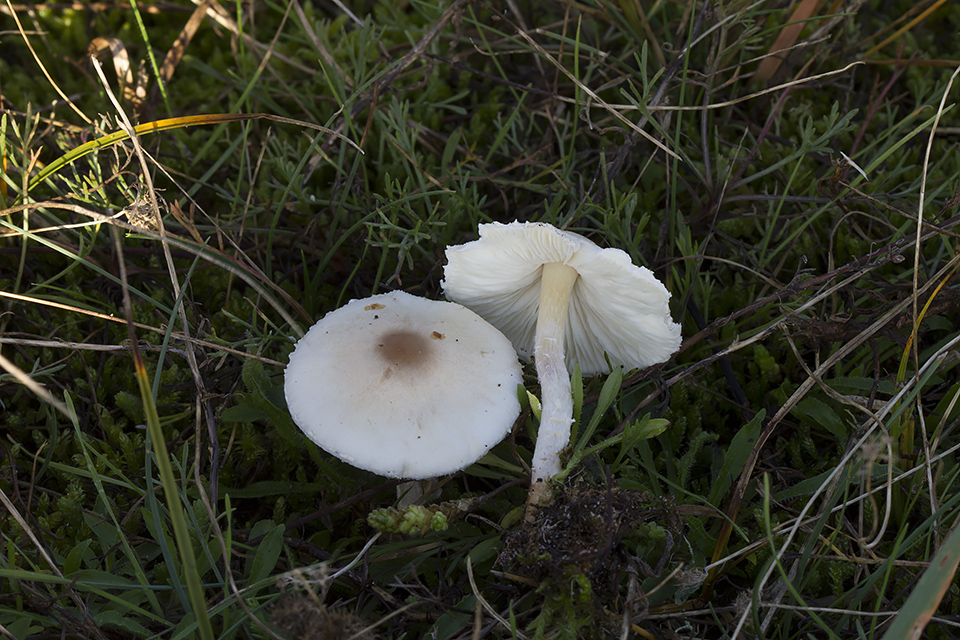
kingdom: Fungi
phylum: Basidiomycota
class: Agaricomycetes
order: Agaricales
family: Agaricaceae
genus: Lepiota
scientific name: Lepiota erminea
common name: hvid parasolhat
